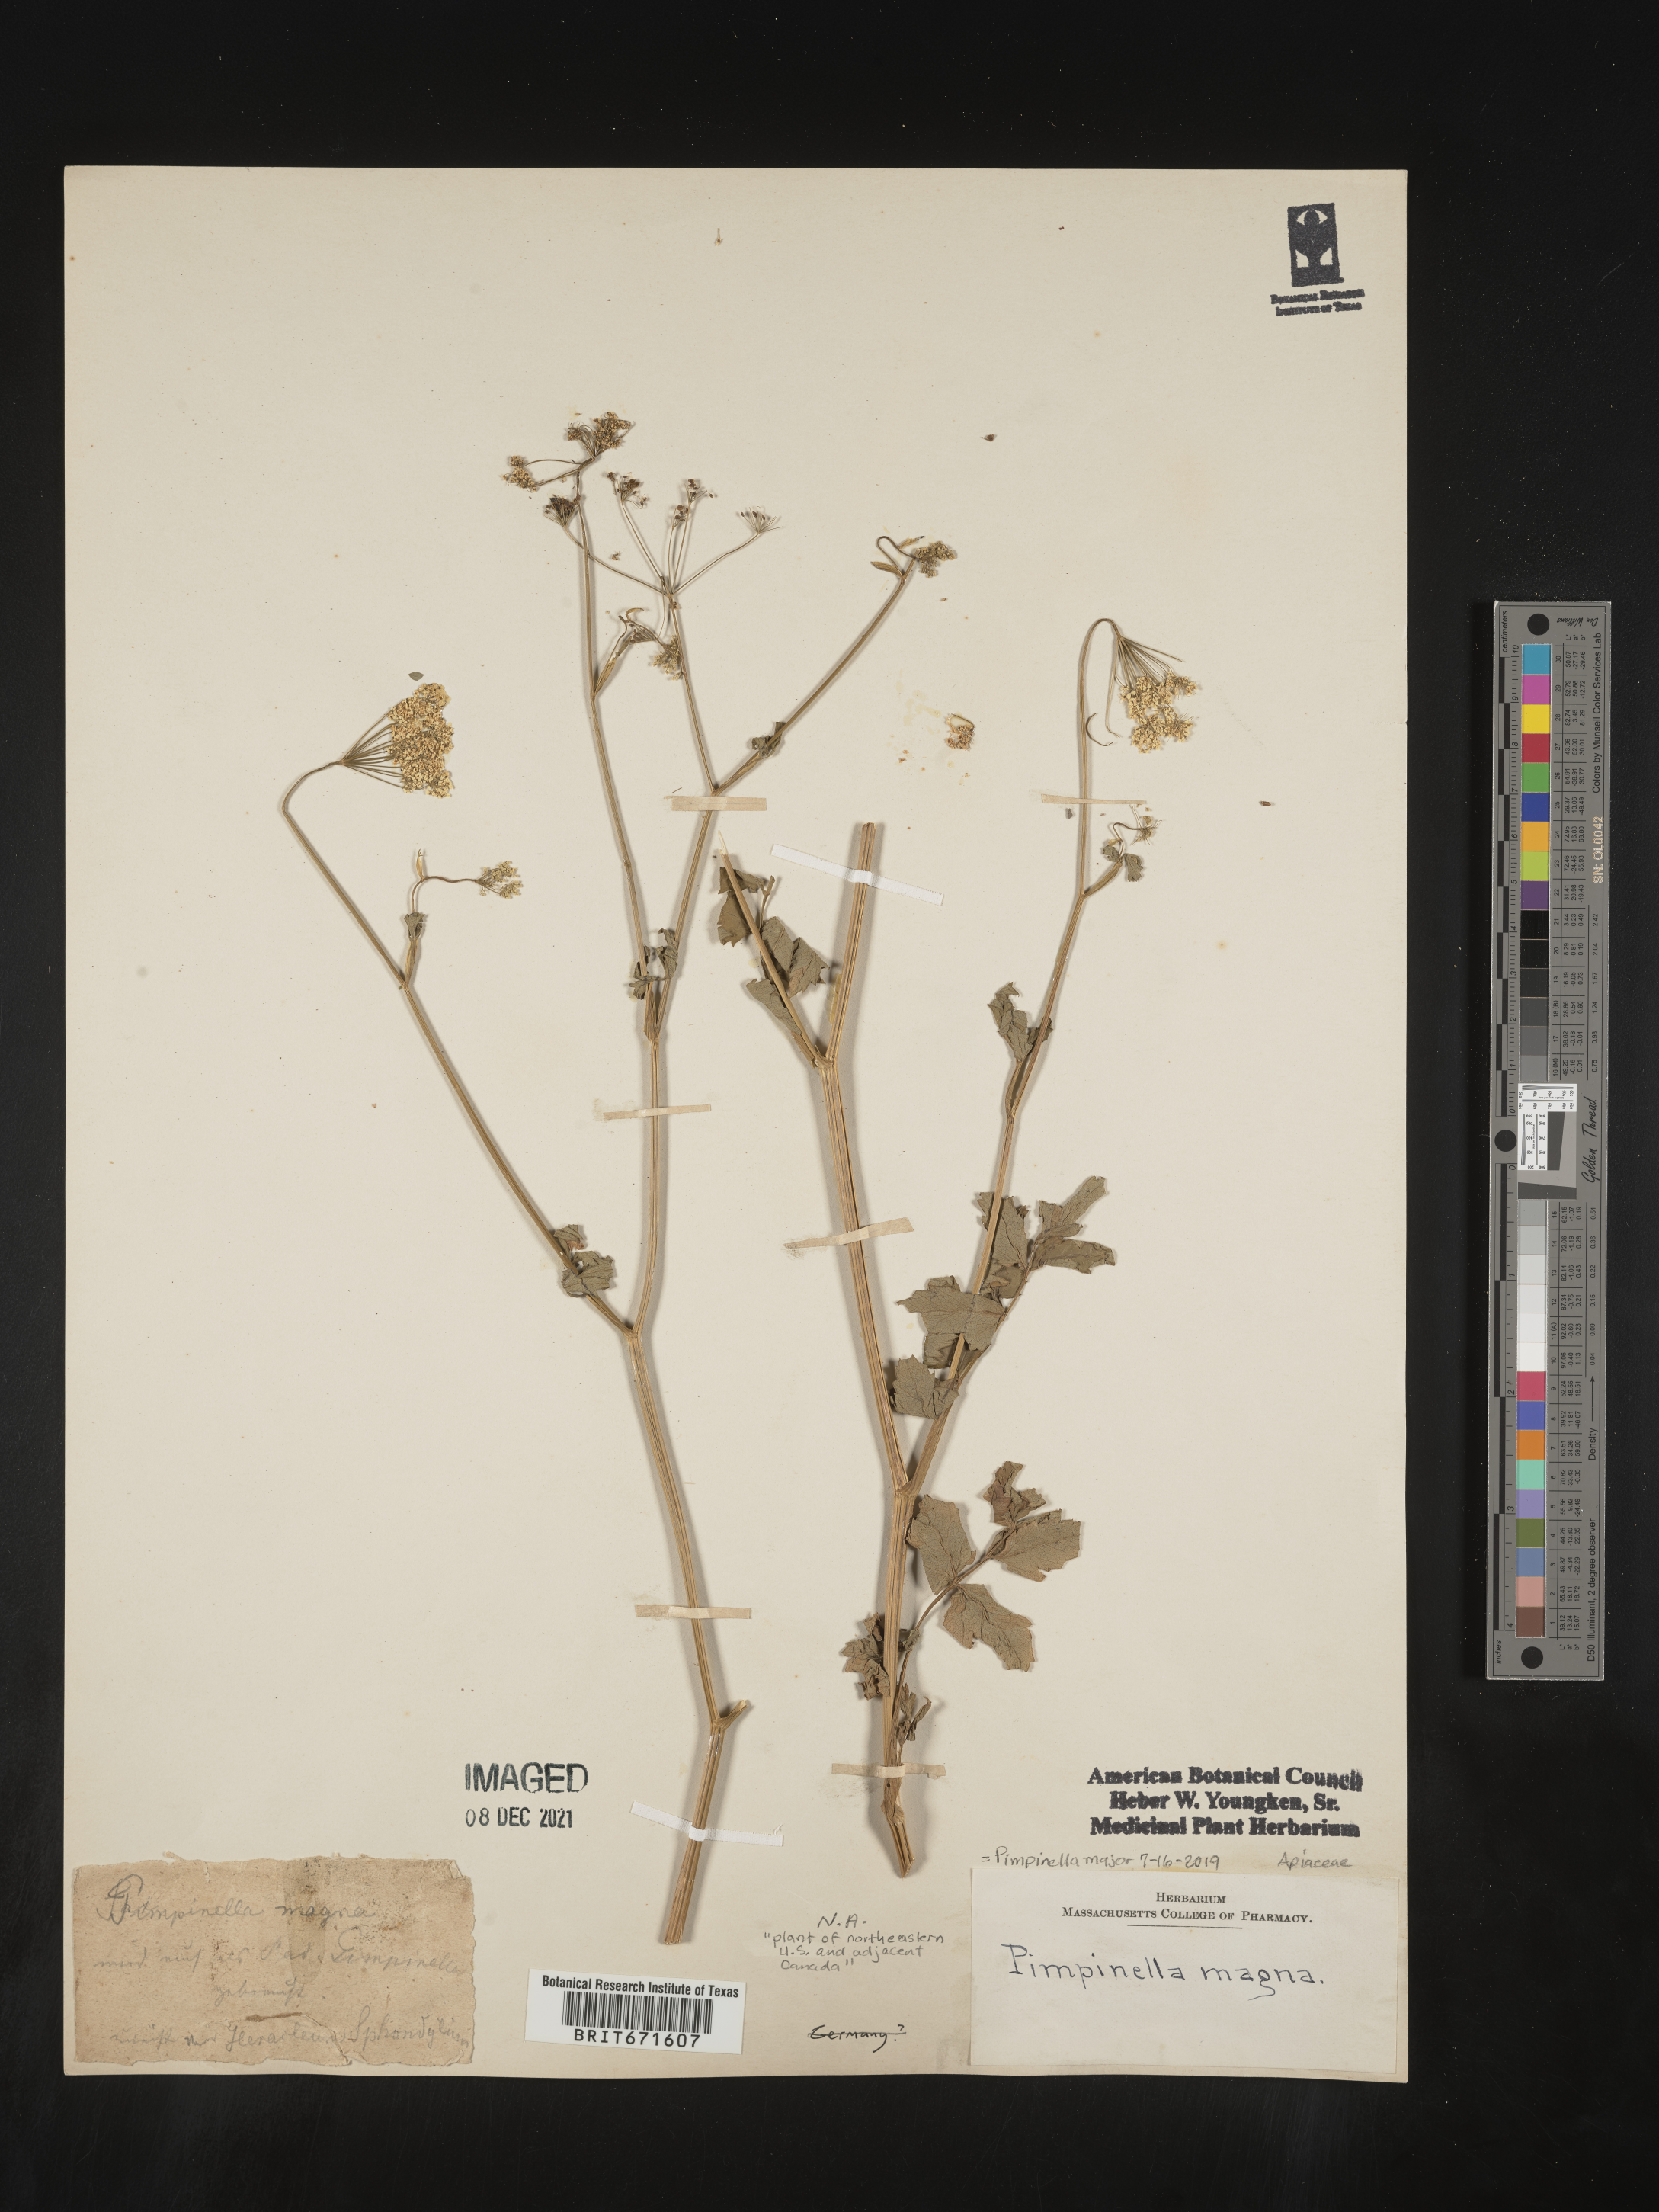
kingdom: Plantae
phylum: Tracheophyta
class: Magnoliopsida
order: Apiales
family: Apiaceae
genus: Pimpinella
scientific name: Pimpinella
